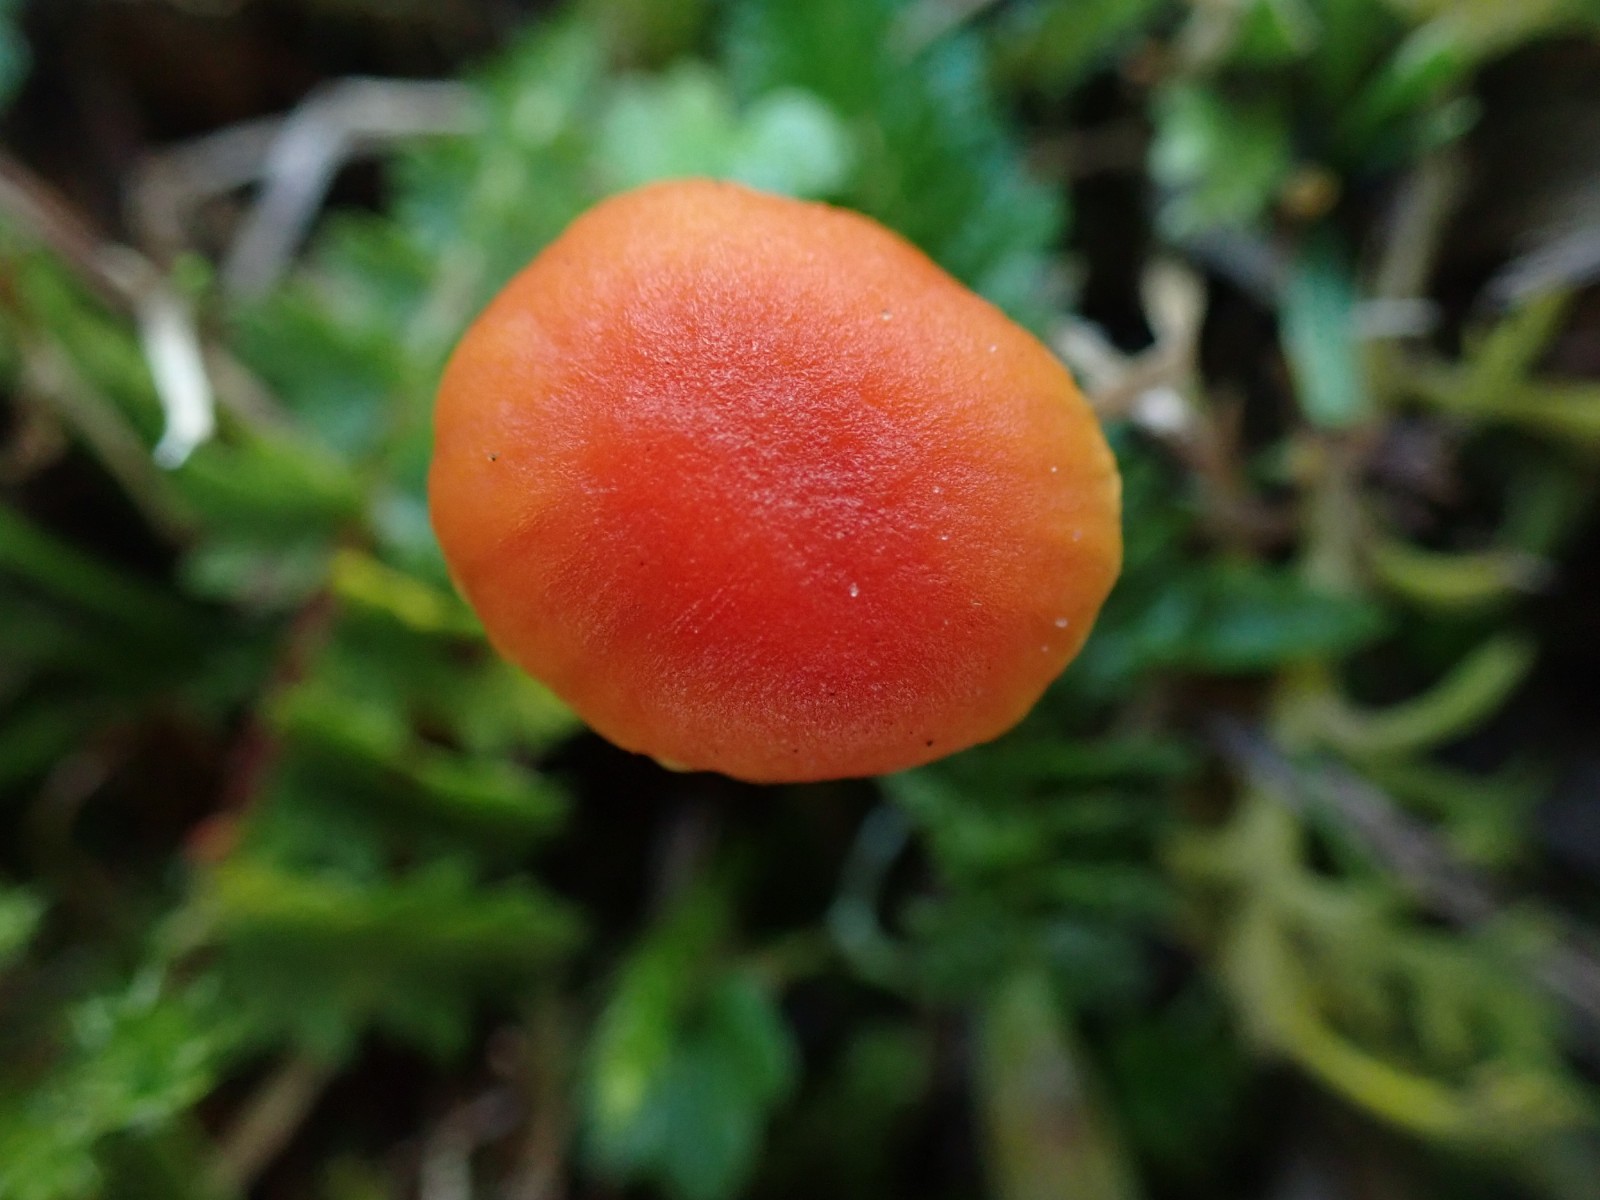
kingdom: Fungi
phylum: Basidiomycota
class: Agaricomycetes
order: Agaricales
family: Hygrophoraceae
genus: Hygrocybe
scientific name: Hygrocybe mucronella
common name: bitter vokshat
